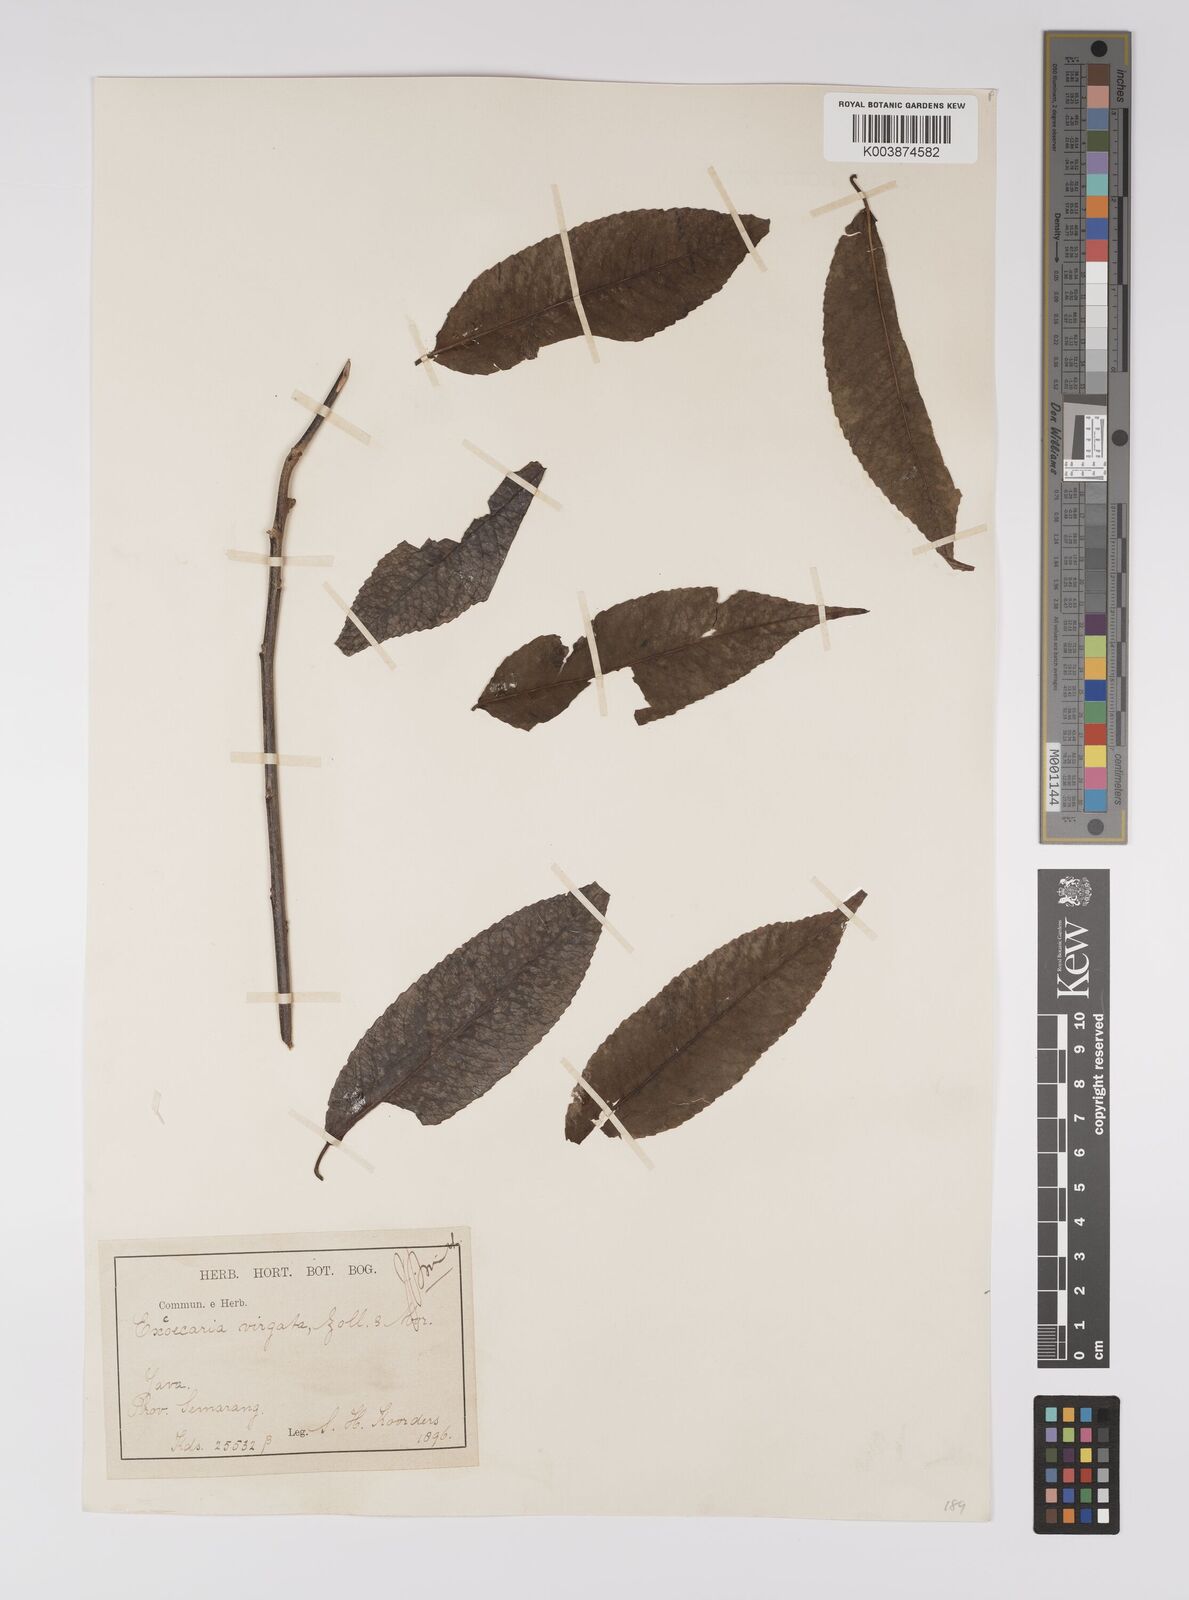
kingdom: Plantae
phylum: Tracheophyta
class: Magnoliopsida
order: Malpighiales
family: Euphorbiaceae
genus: Shirakiopsis
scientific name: Shirakiopsis virgata
